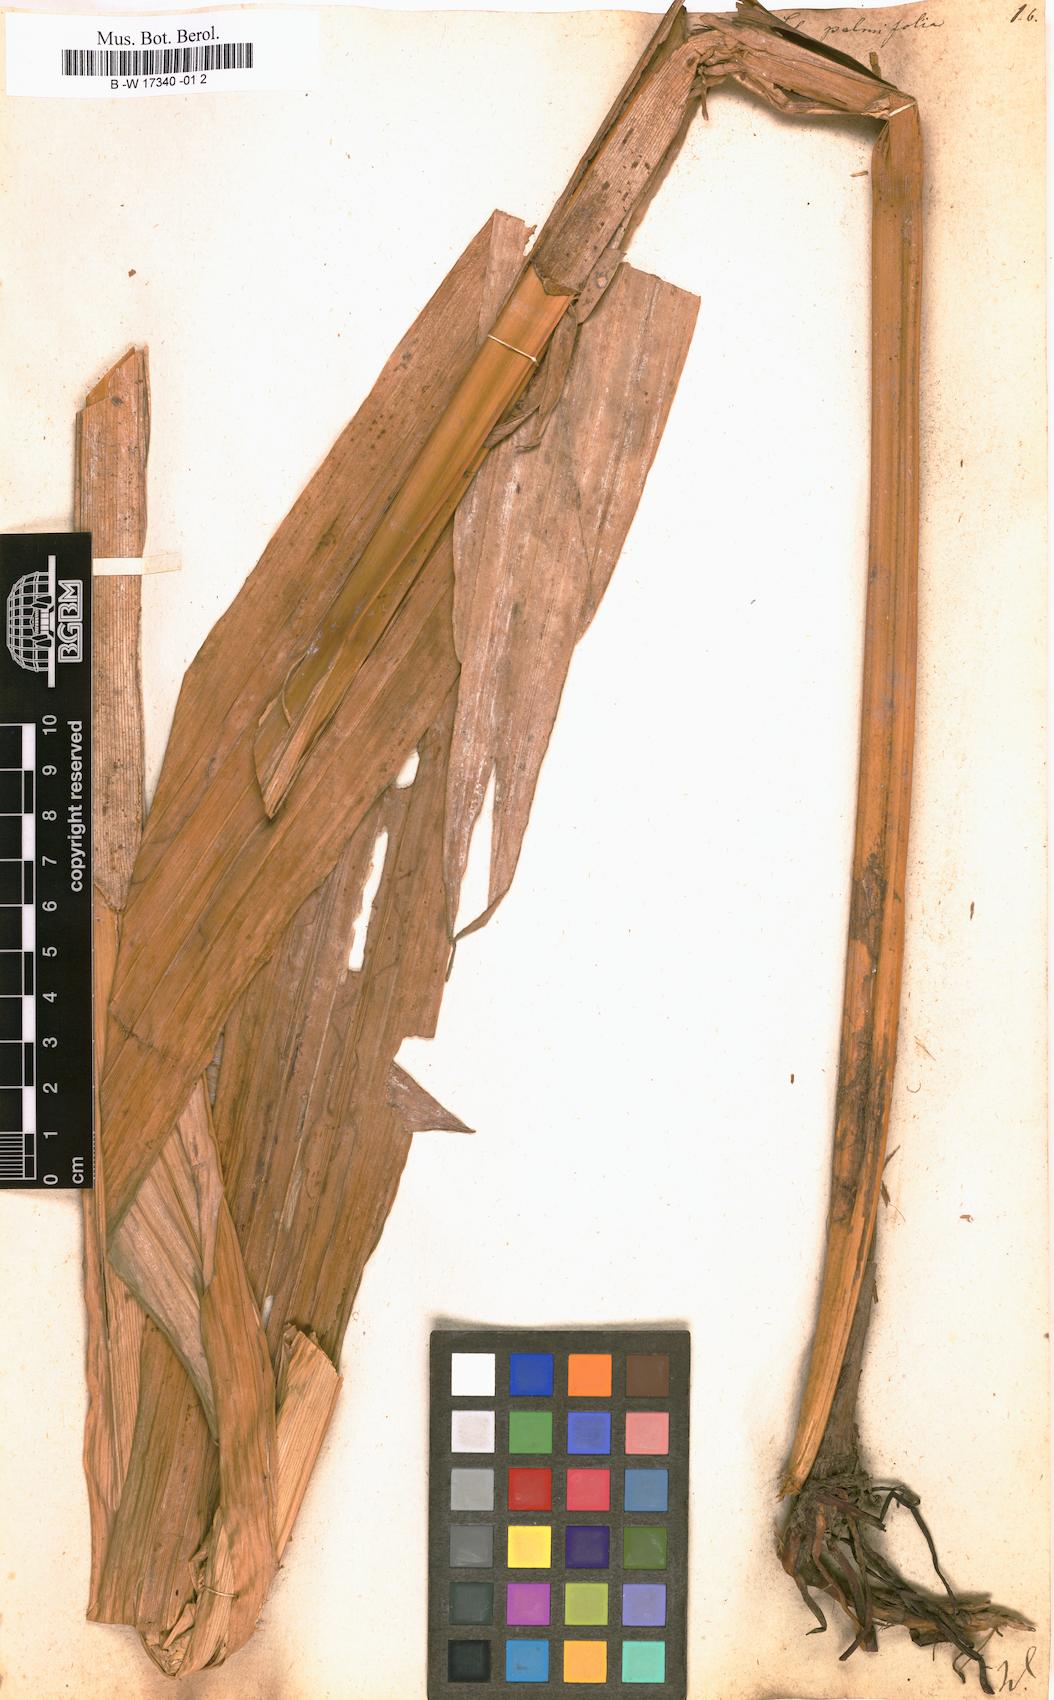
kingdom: Plantae
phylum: Tracheophyta
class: Liliopsida
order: Poales
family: Cyperaceae
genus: Scleria
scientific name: Scleria macrophylla
